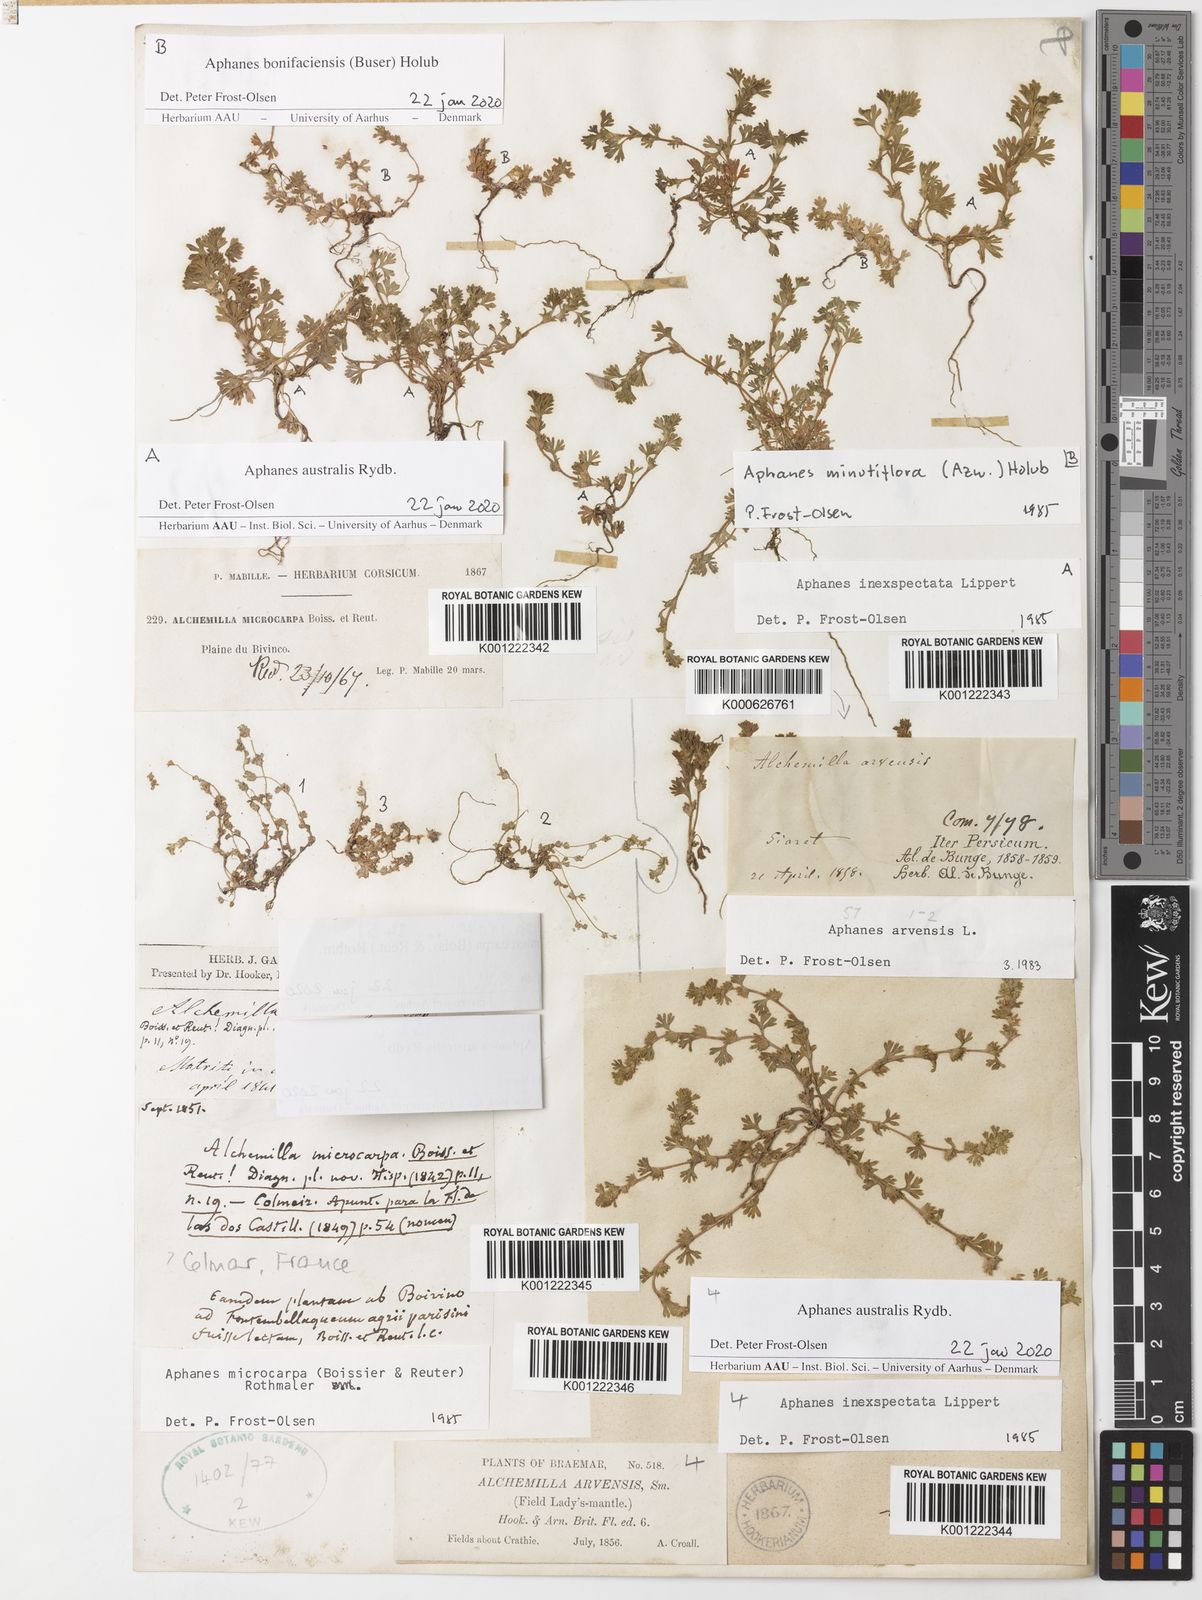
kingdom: Plantae
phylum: Tracheophyta
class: Magnoliopsida
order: Rosales
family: Rosaceae
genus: Aphanes
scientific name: Aphanes australis
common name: Slender parsley-piert
